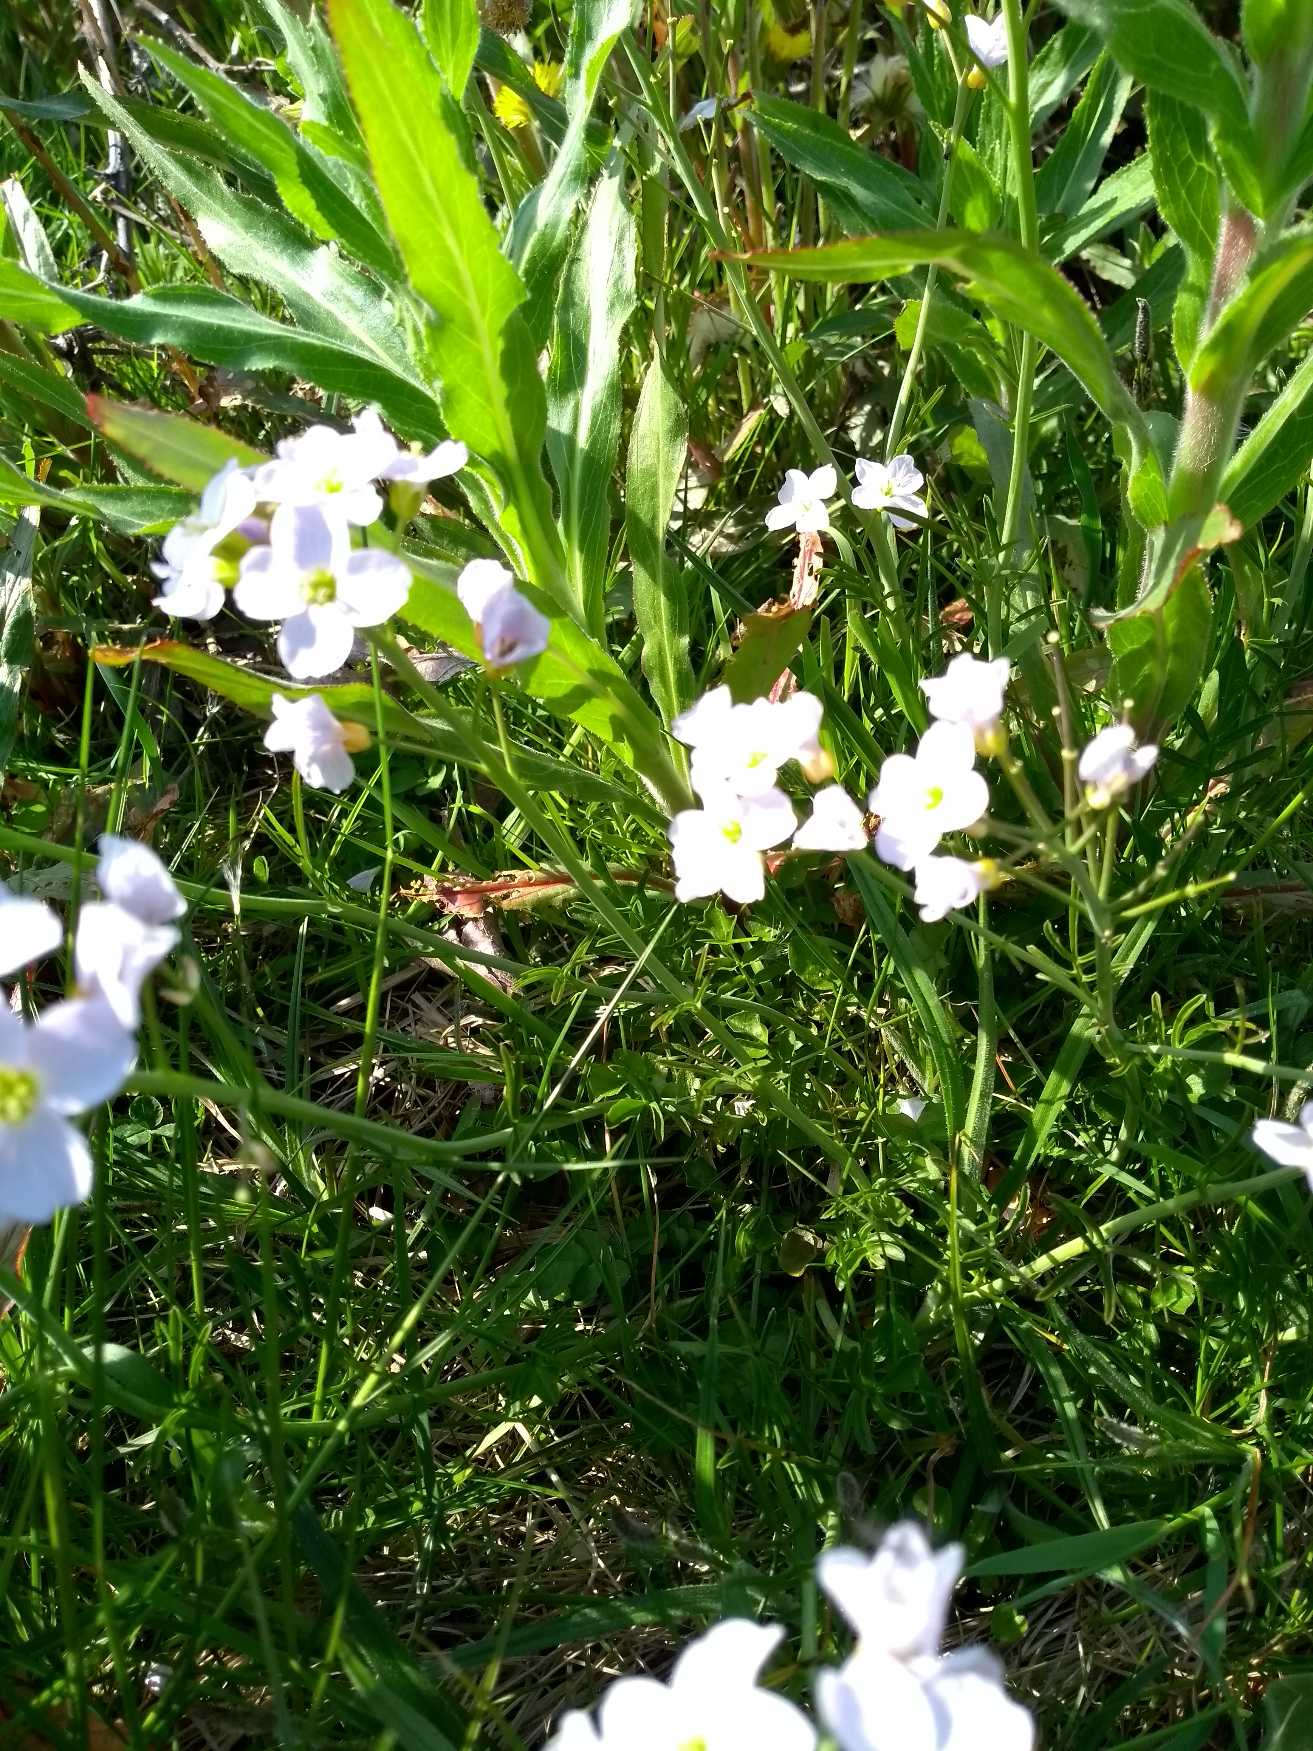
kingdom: Plantae
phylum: Tracheophyta
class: Magnoliopsida
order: Brassicales
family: Brassicaceae
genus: Cardamine
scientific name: Cardamine pratensis
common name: Engkarse
